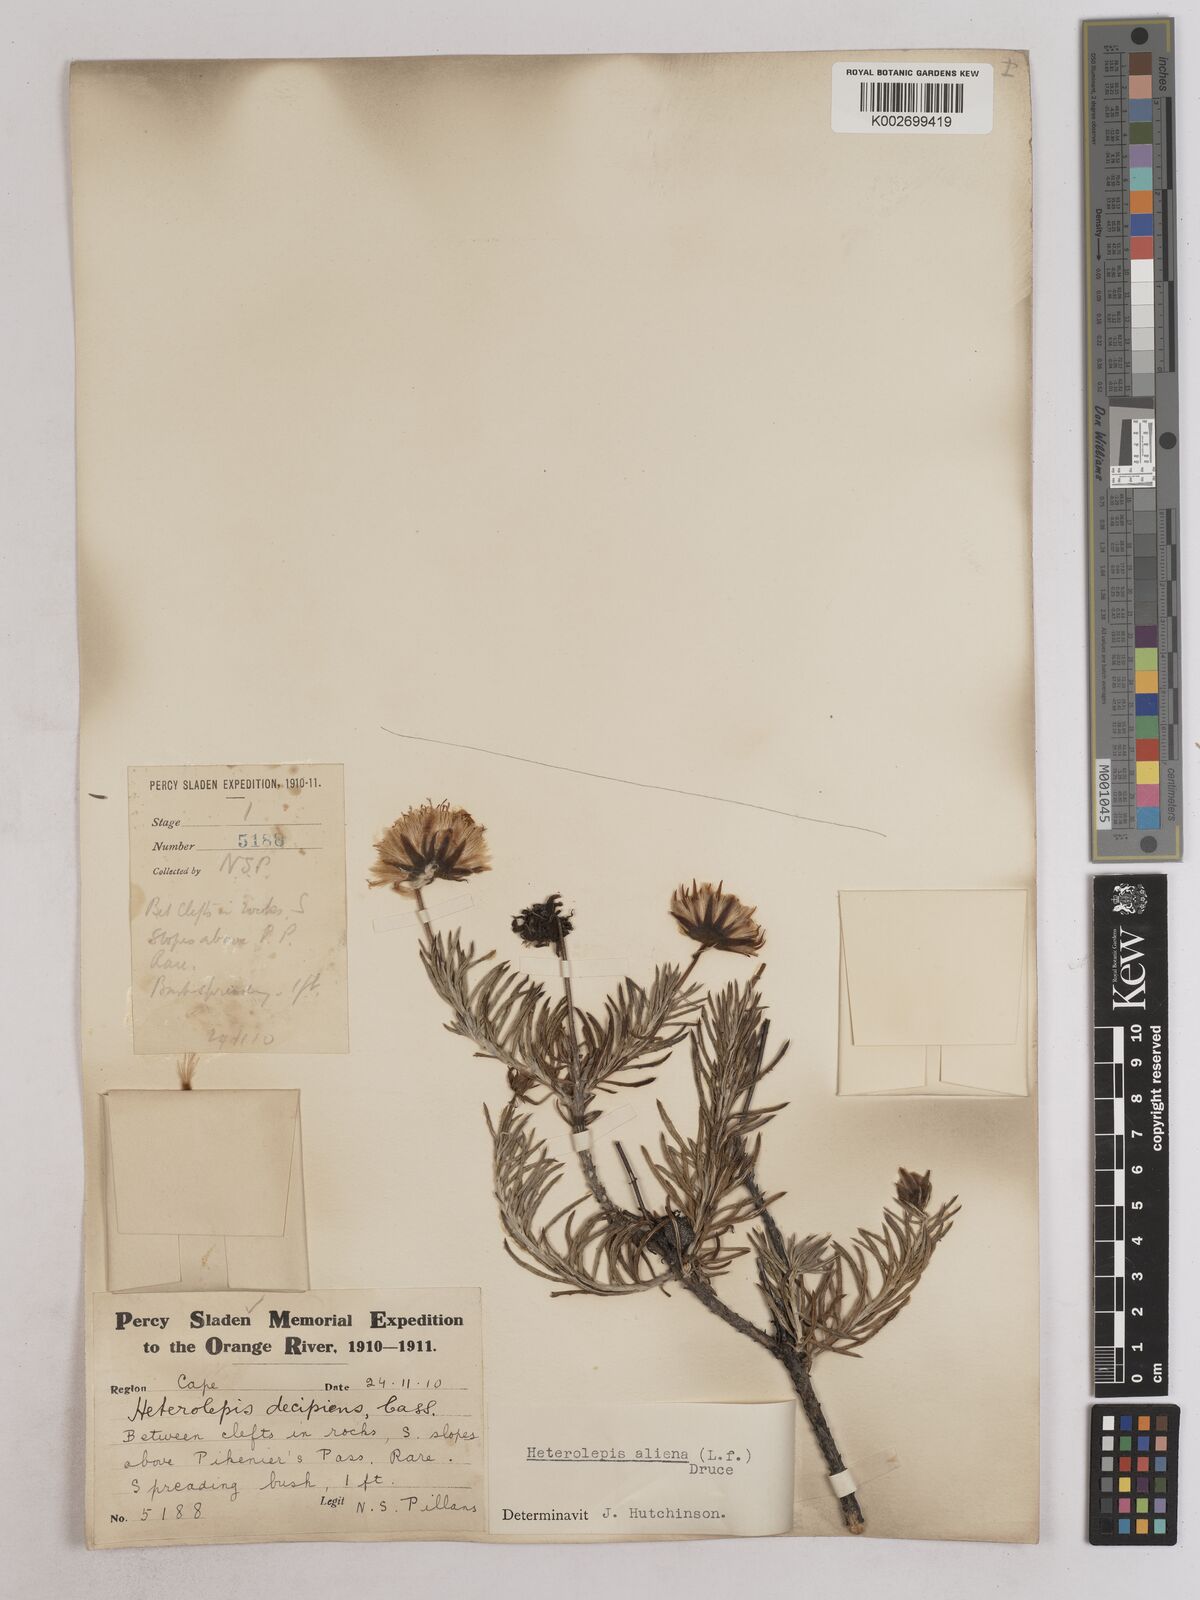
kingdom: Plantae
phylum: Tracheophyta
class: Magnoliopsida
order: Asterales
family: Asteraceae
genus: Heterolepis
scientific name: Heterolepis aliena
